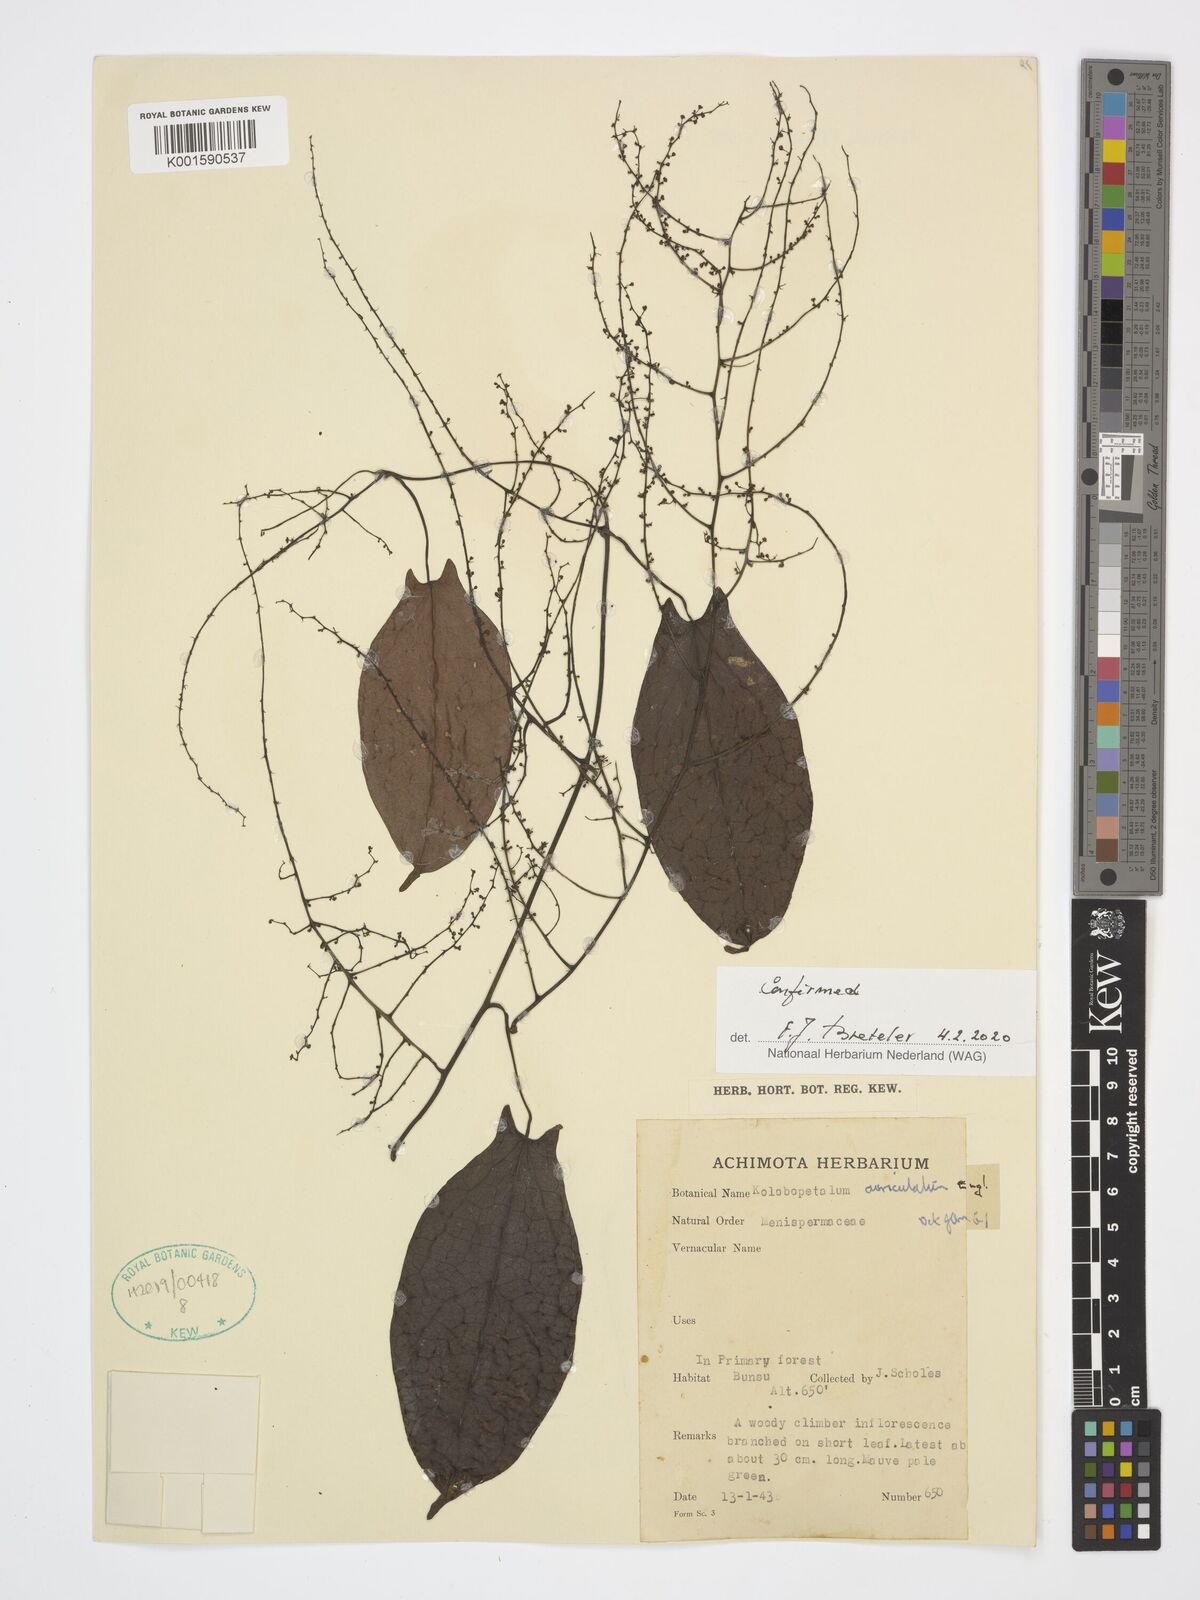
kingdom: Plantae
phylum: Tracheophyta
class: Magnoliopsida
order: Ranunculales
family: Menispermaceae
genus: Kolobopetalum
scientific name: Kolobopetalum auriculatum
